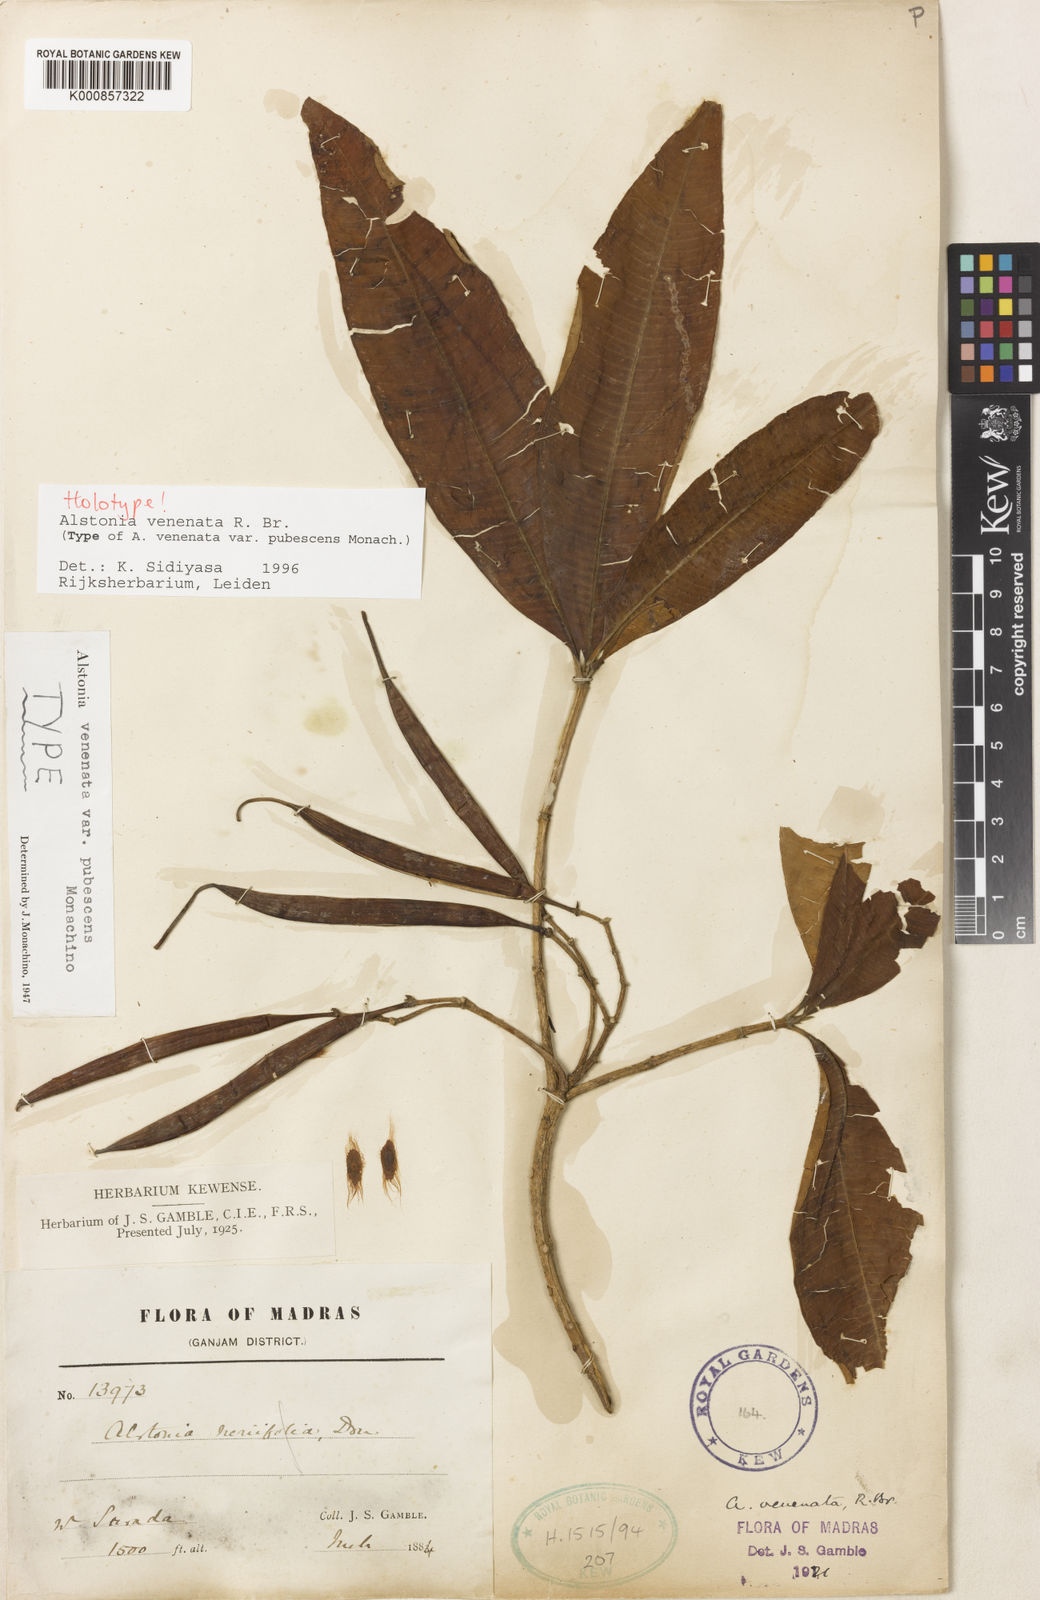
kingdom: Plantae
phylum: Tracheophyta
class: Magnoliopsida
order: Gentianales
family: Apocynaceae
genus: Alstonia
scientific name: Alstonia venenata
